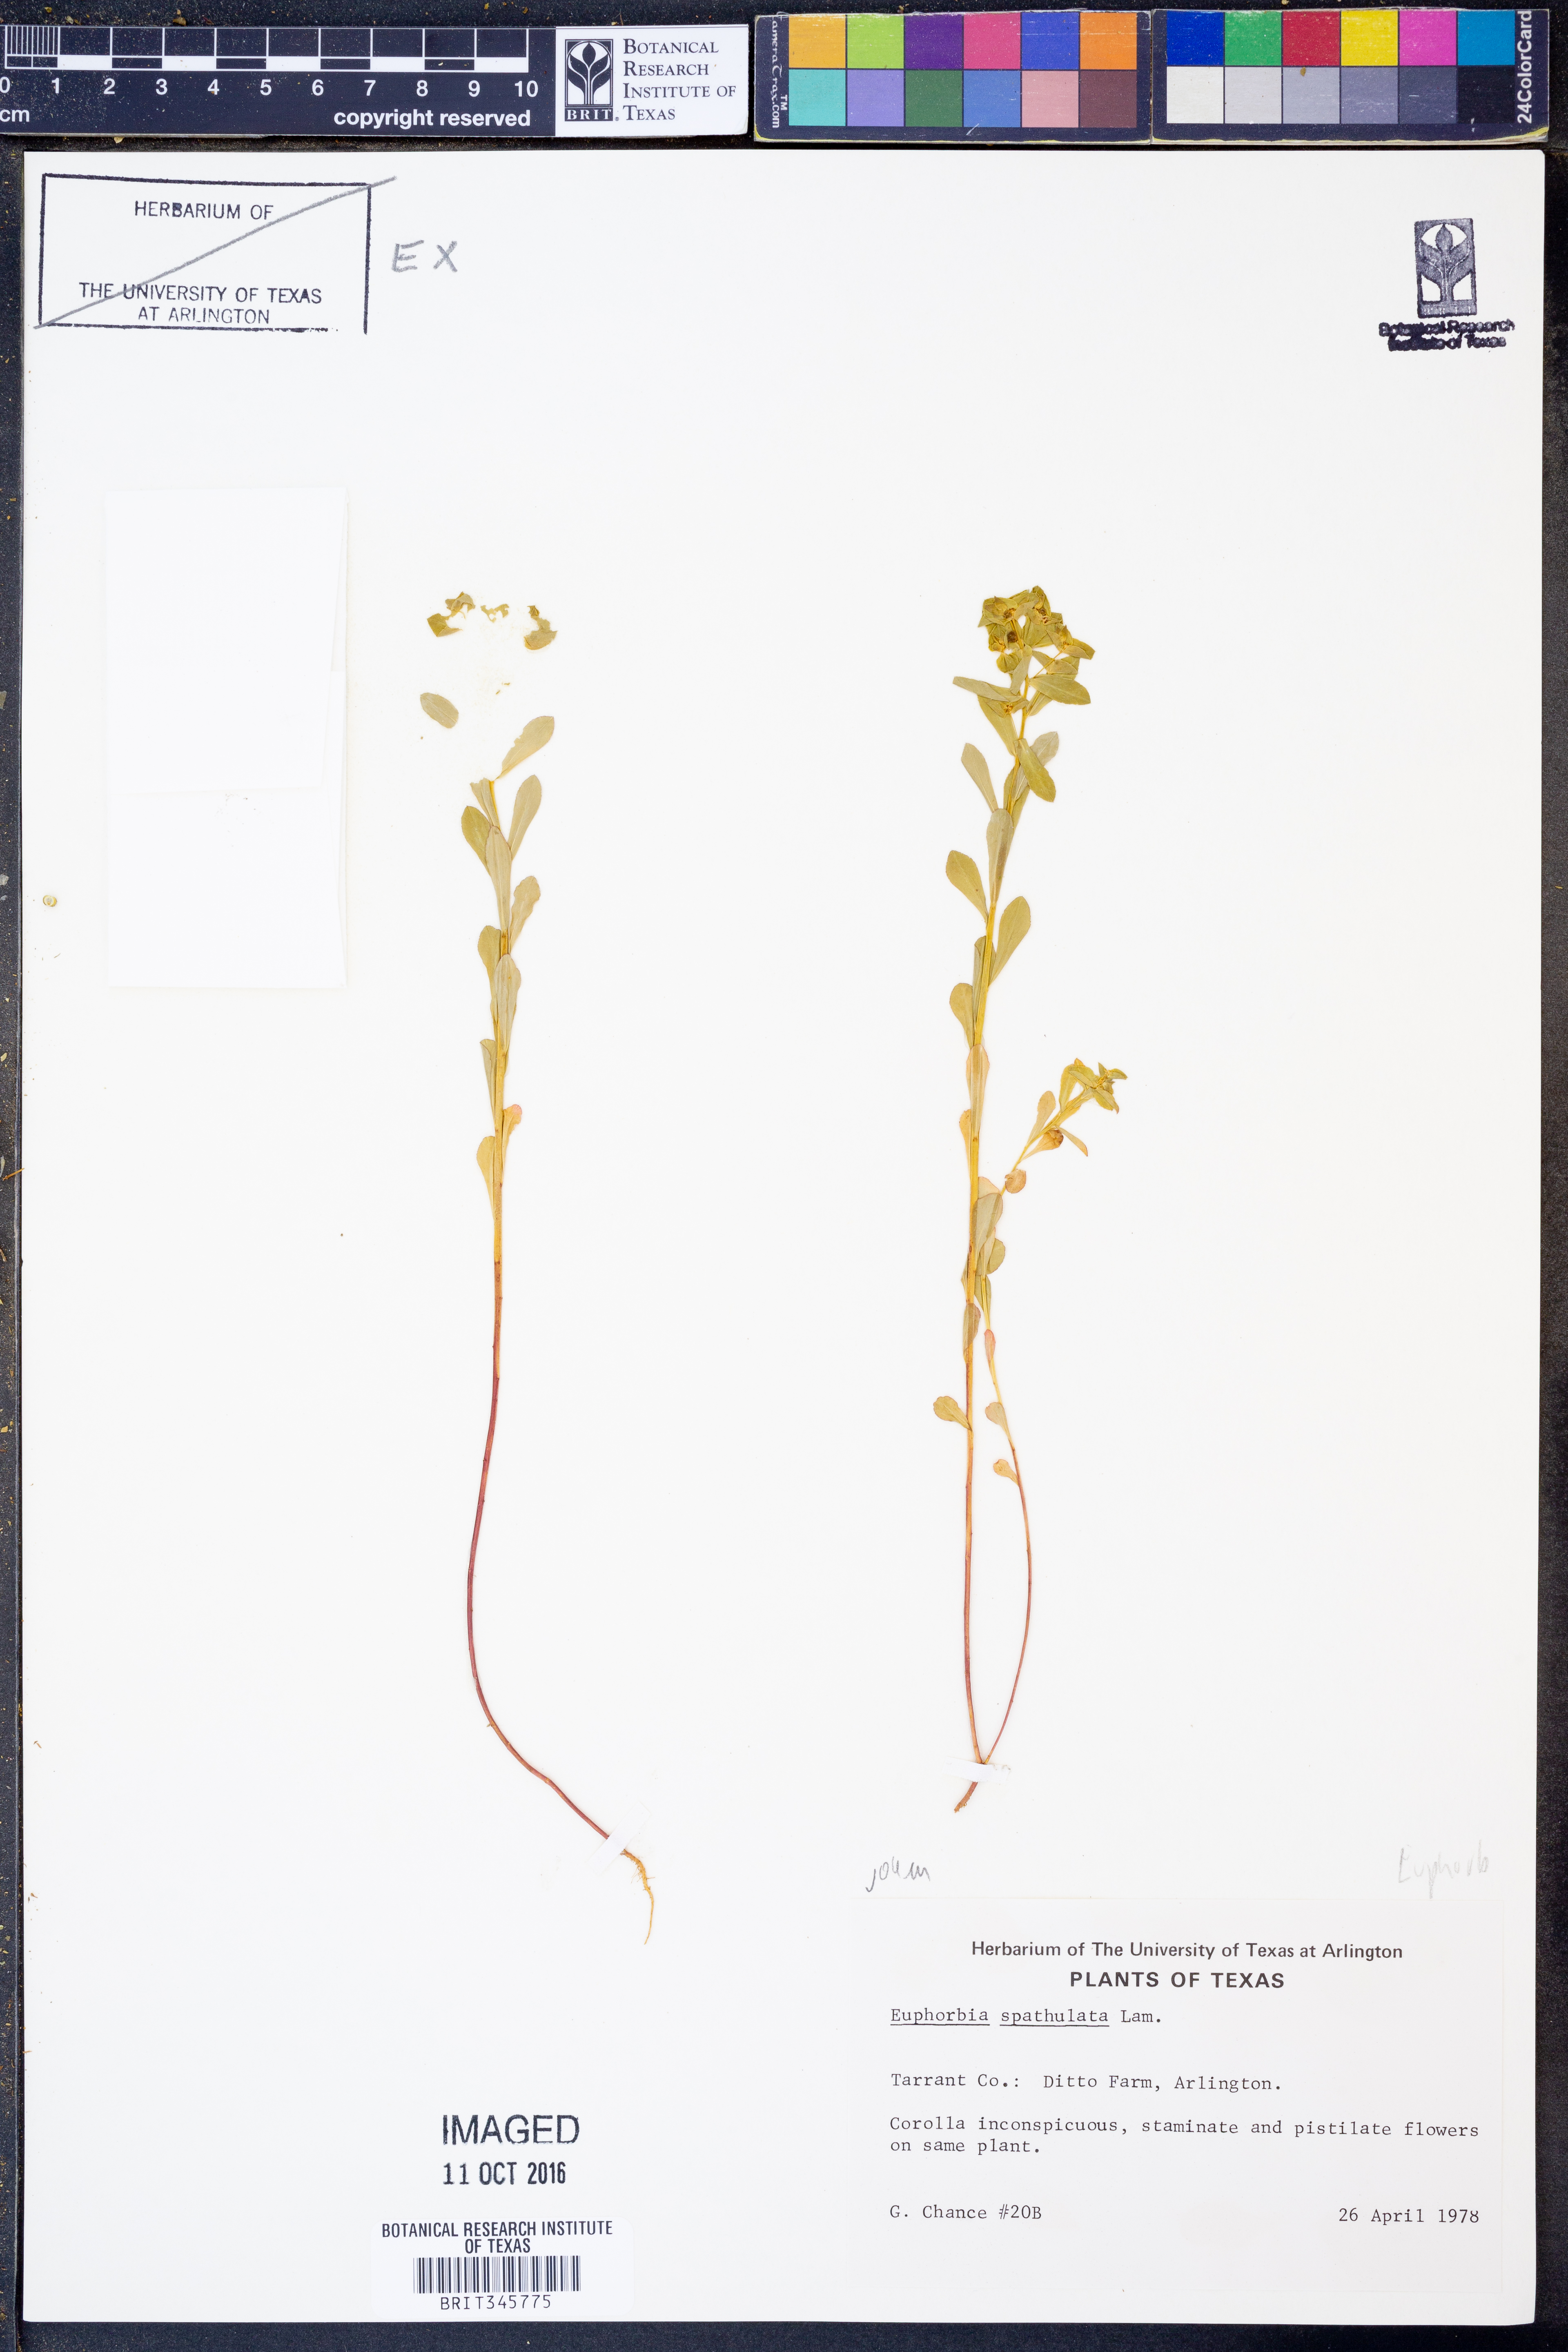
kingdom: Plantae
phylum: Tracheophyta
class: Magnoliopsida
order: Malpighiales
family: Euphorbiaceae
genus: Euphorbia
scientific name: Euphorbia spathulata
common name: Blunt spurge
